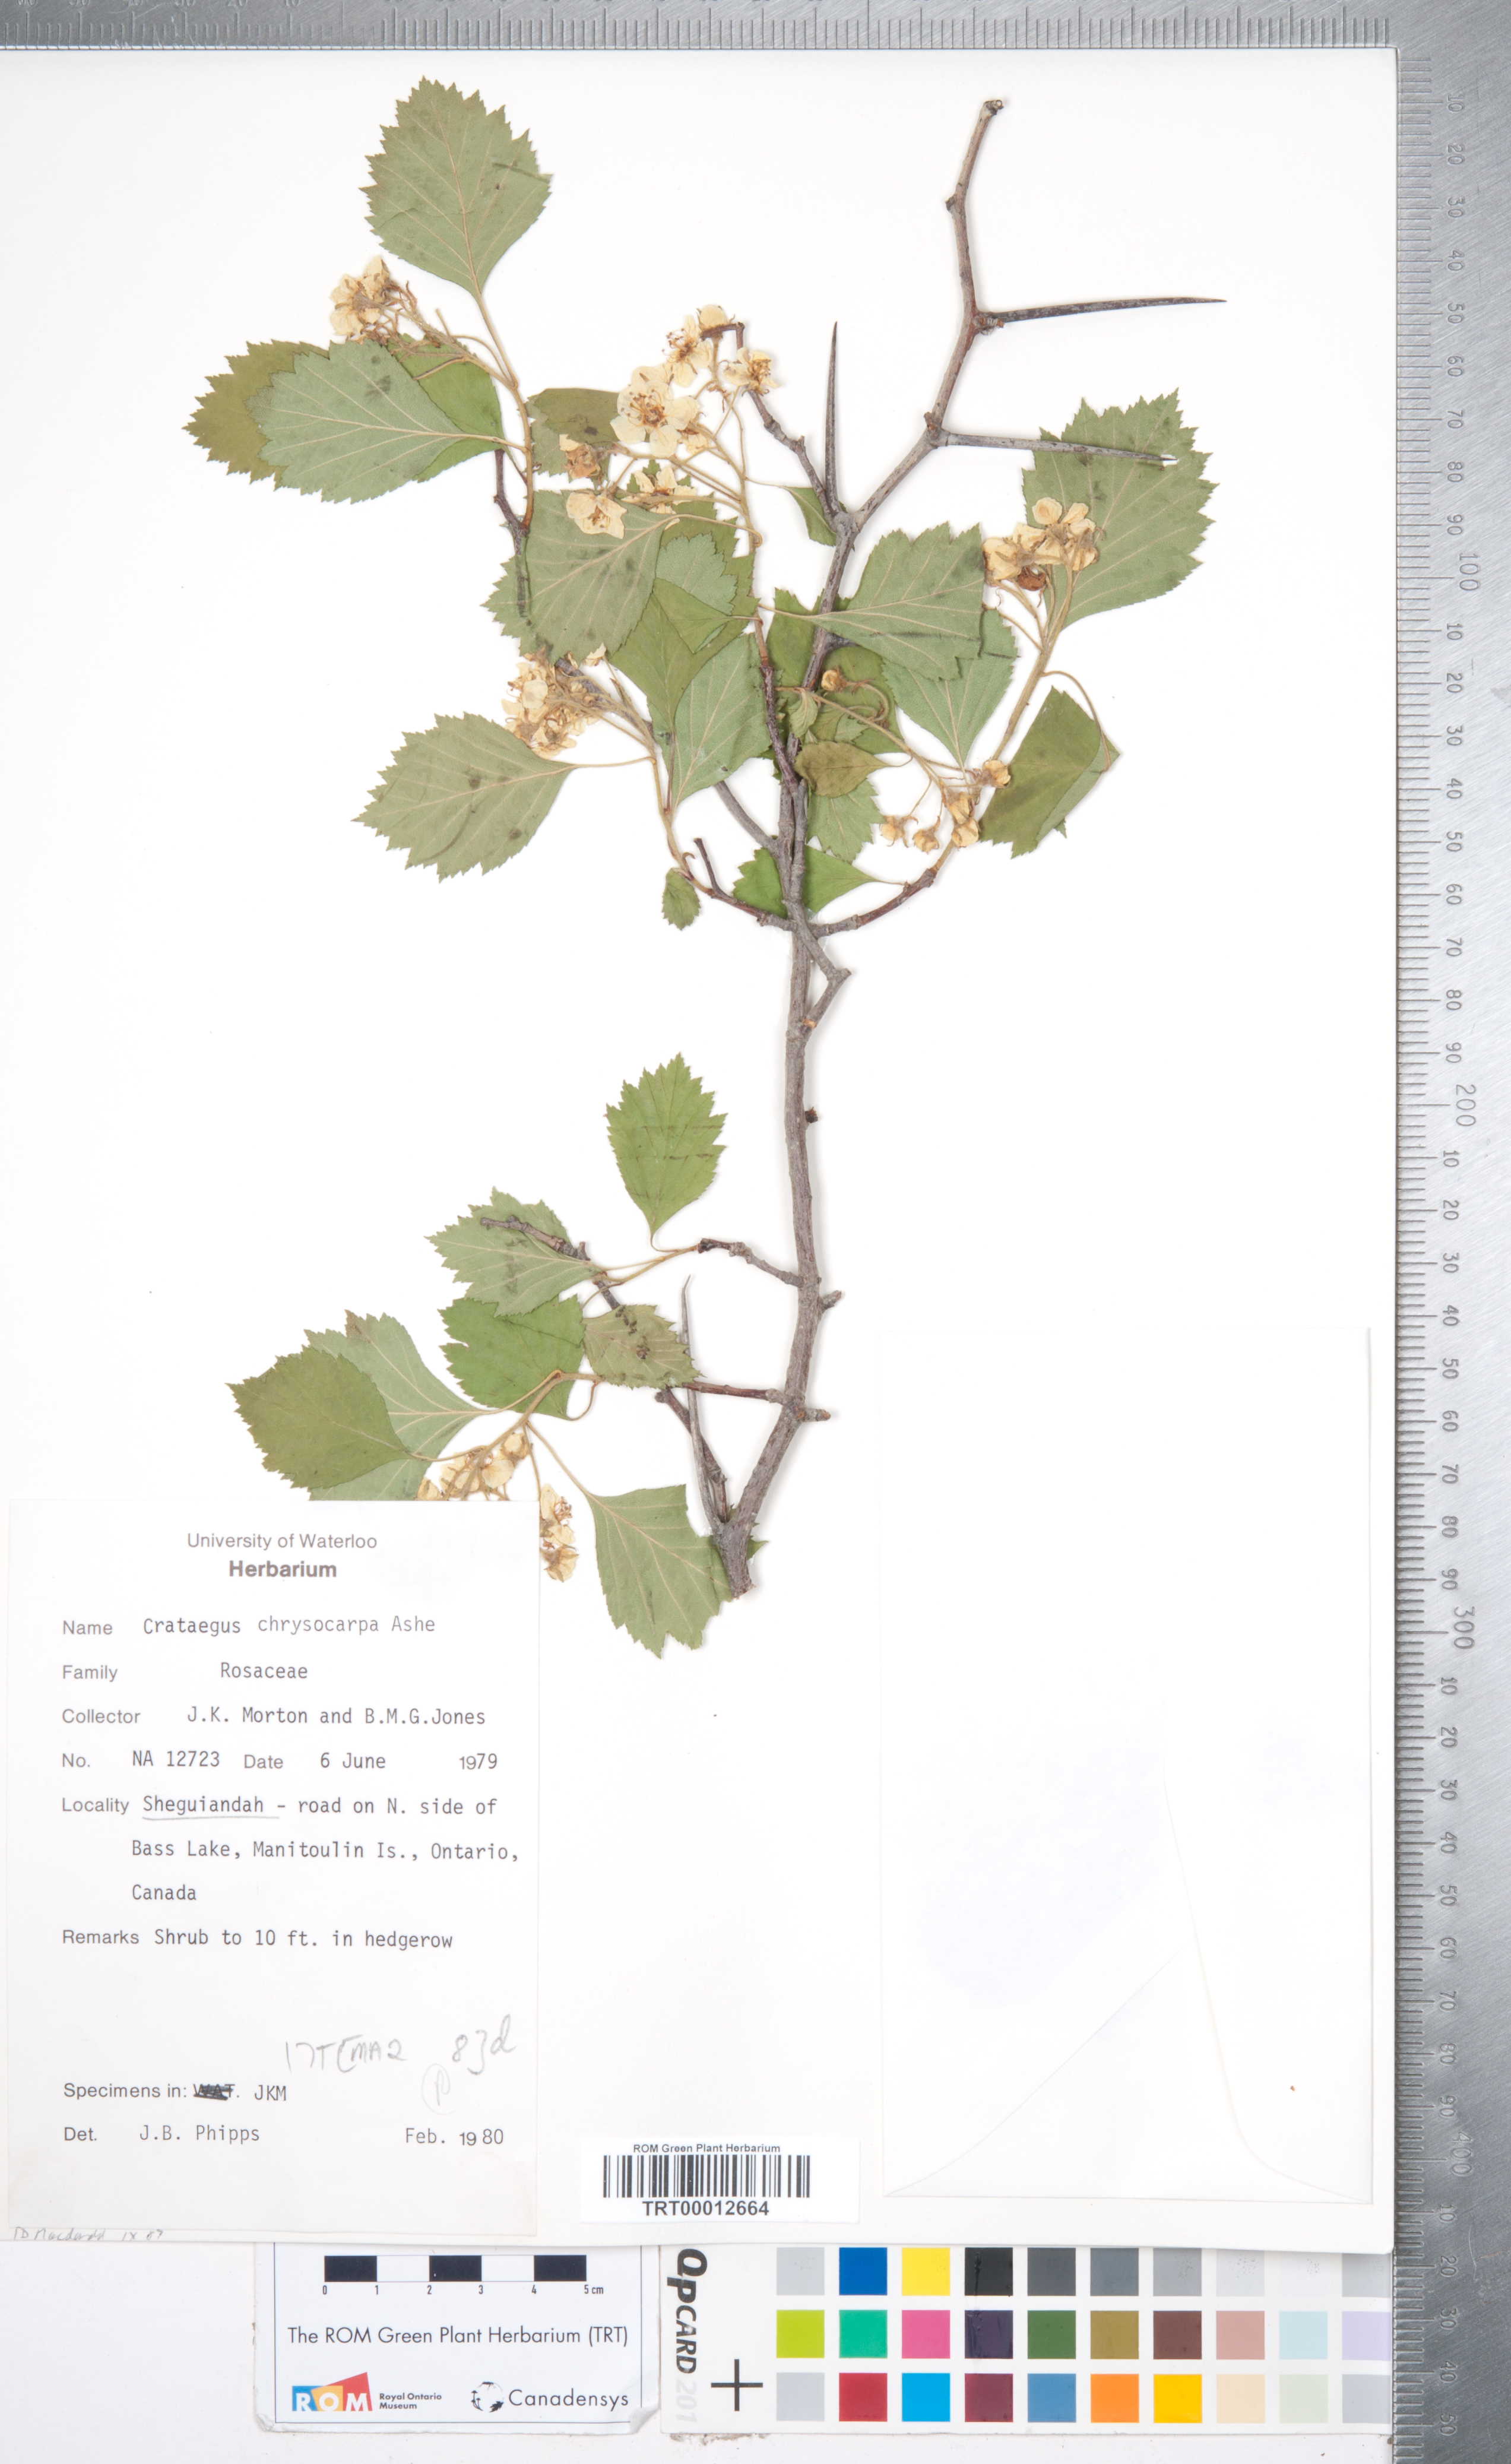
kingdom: Plantae
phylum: Tracheophyta
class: Magnoliopsida
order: Rosales
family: Rosaceae
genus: Crataegus
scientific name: Crataegus chrysocarpa
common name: Fire-berry hawthorn
